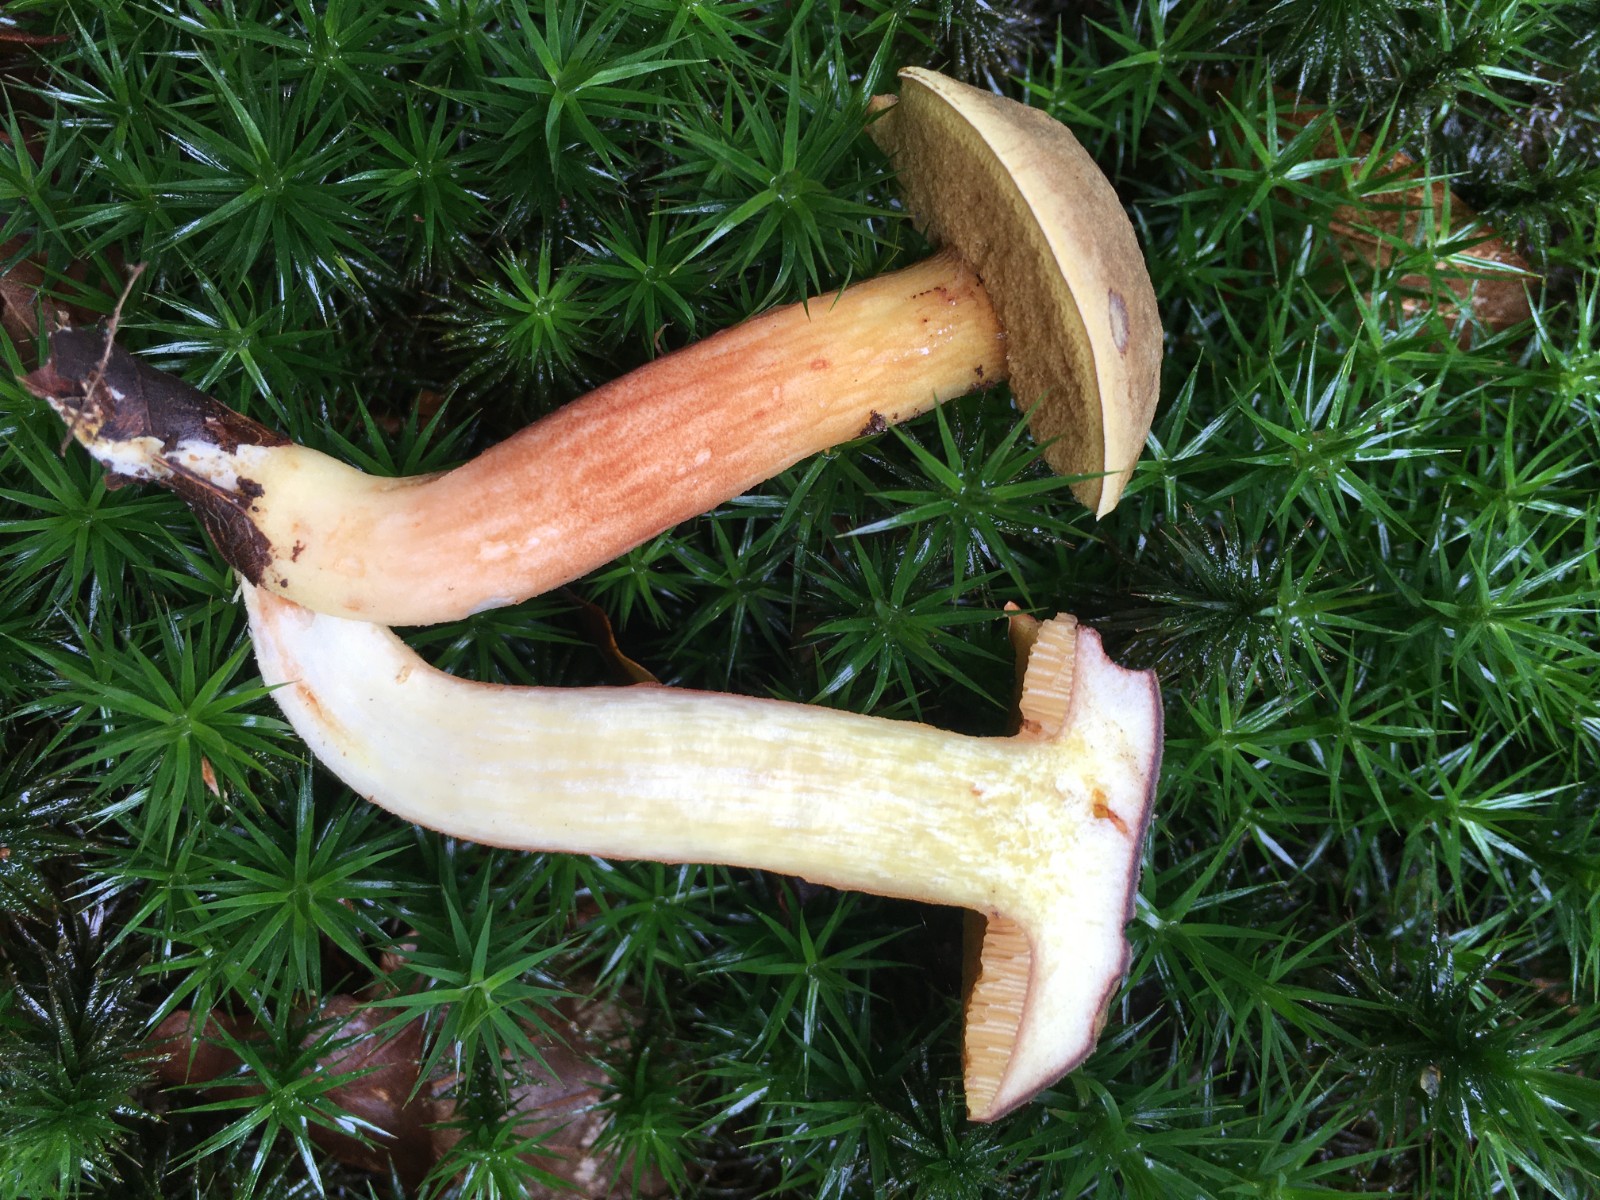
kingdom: Fungi
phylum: Basidiomycota
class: Agaricomycetes
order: Boletales
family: Boletaceae
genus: Xerocomellus
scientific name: Xerocomellus chrysenteron
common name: rødsprukken rørhat
